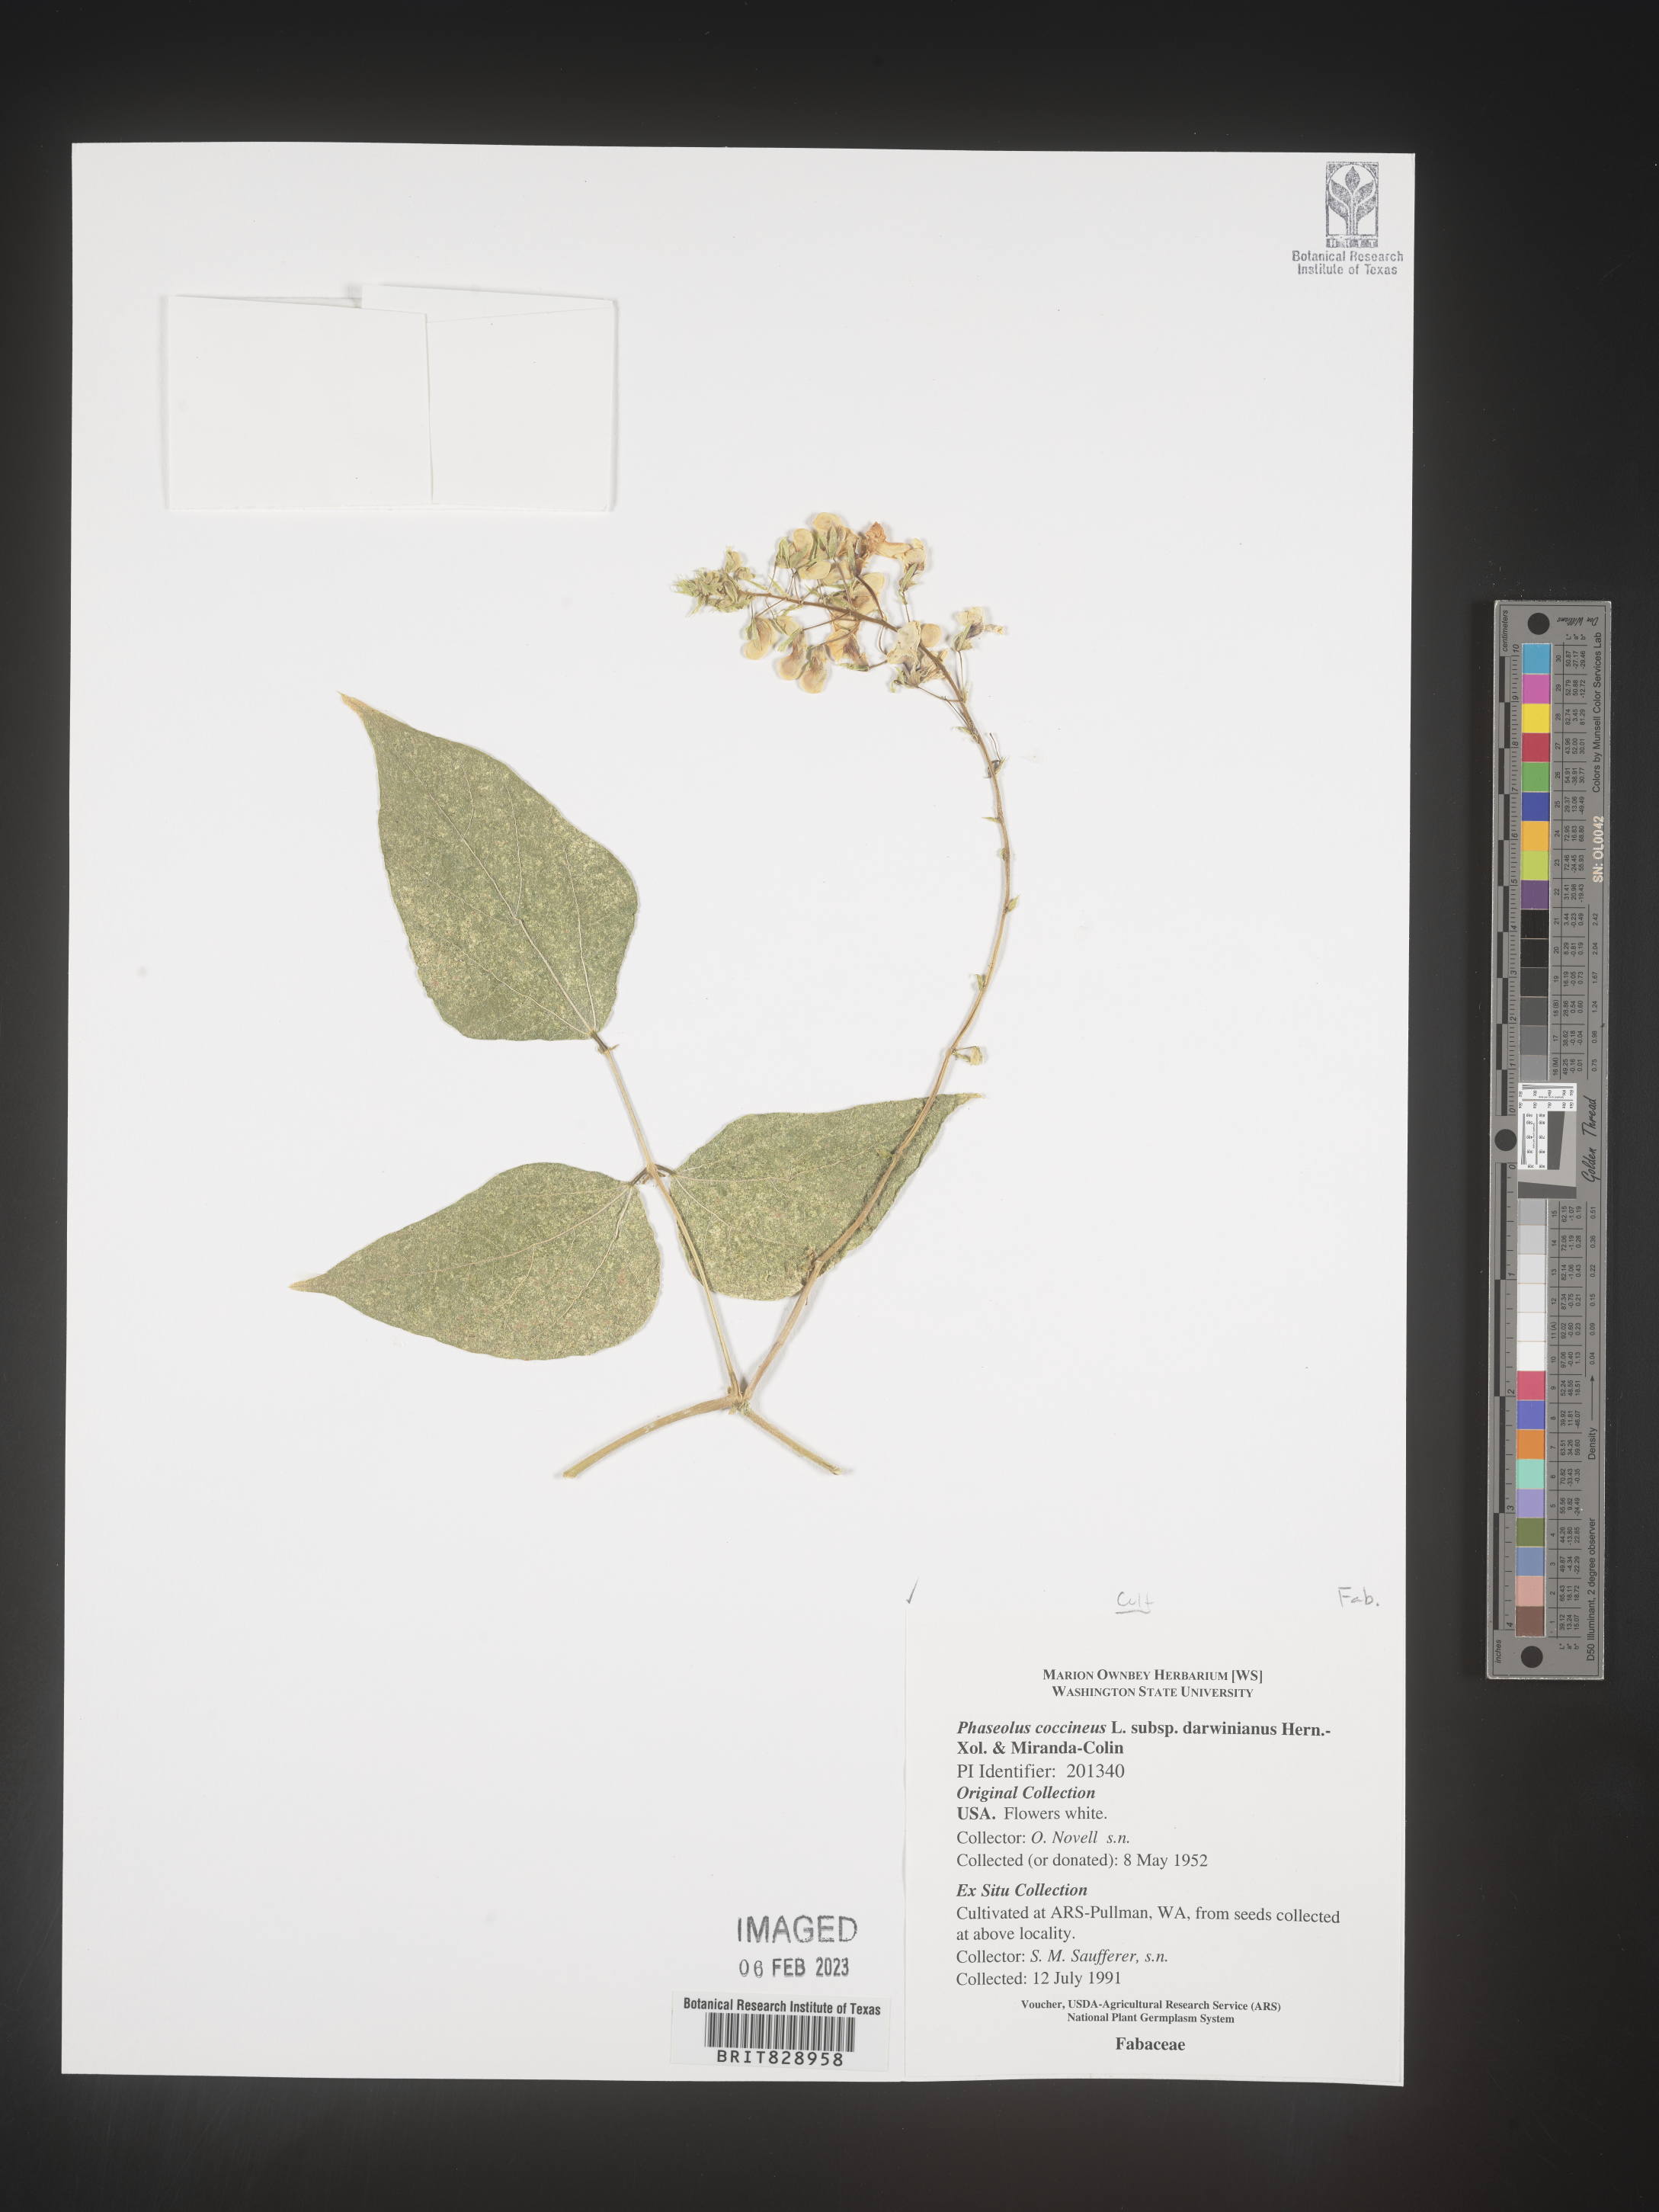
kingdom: Plantae
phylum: Tracheophyta
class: Magnoliopsida
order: Fabales
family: Fabaceae
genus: Phaseolus
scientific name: Phaseolus
